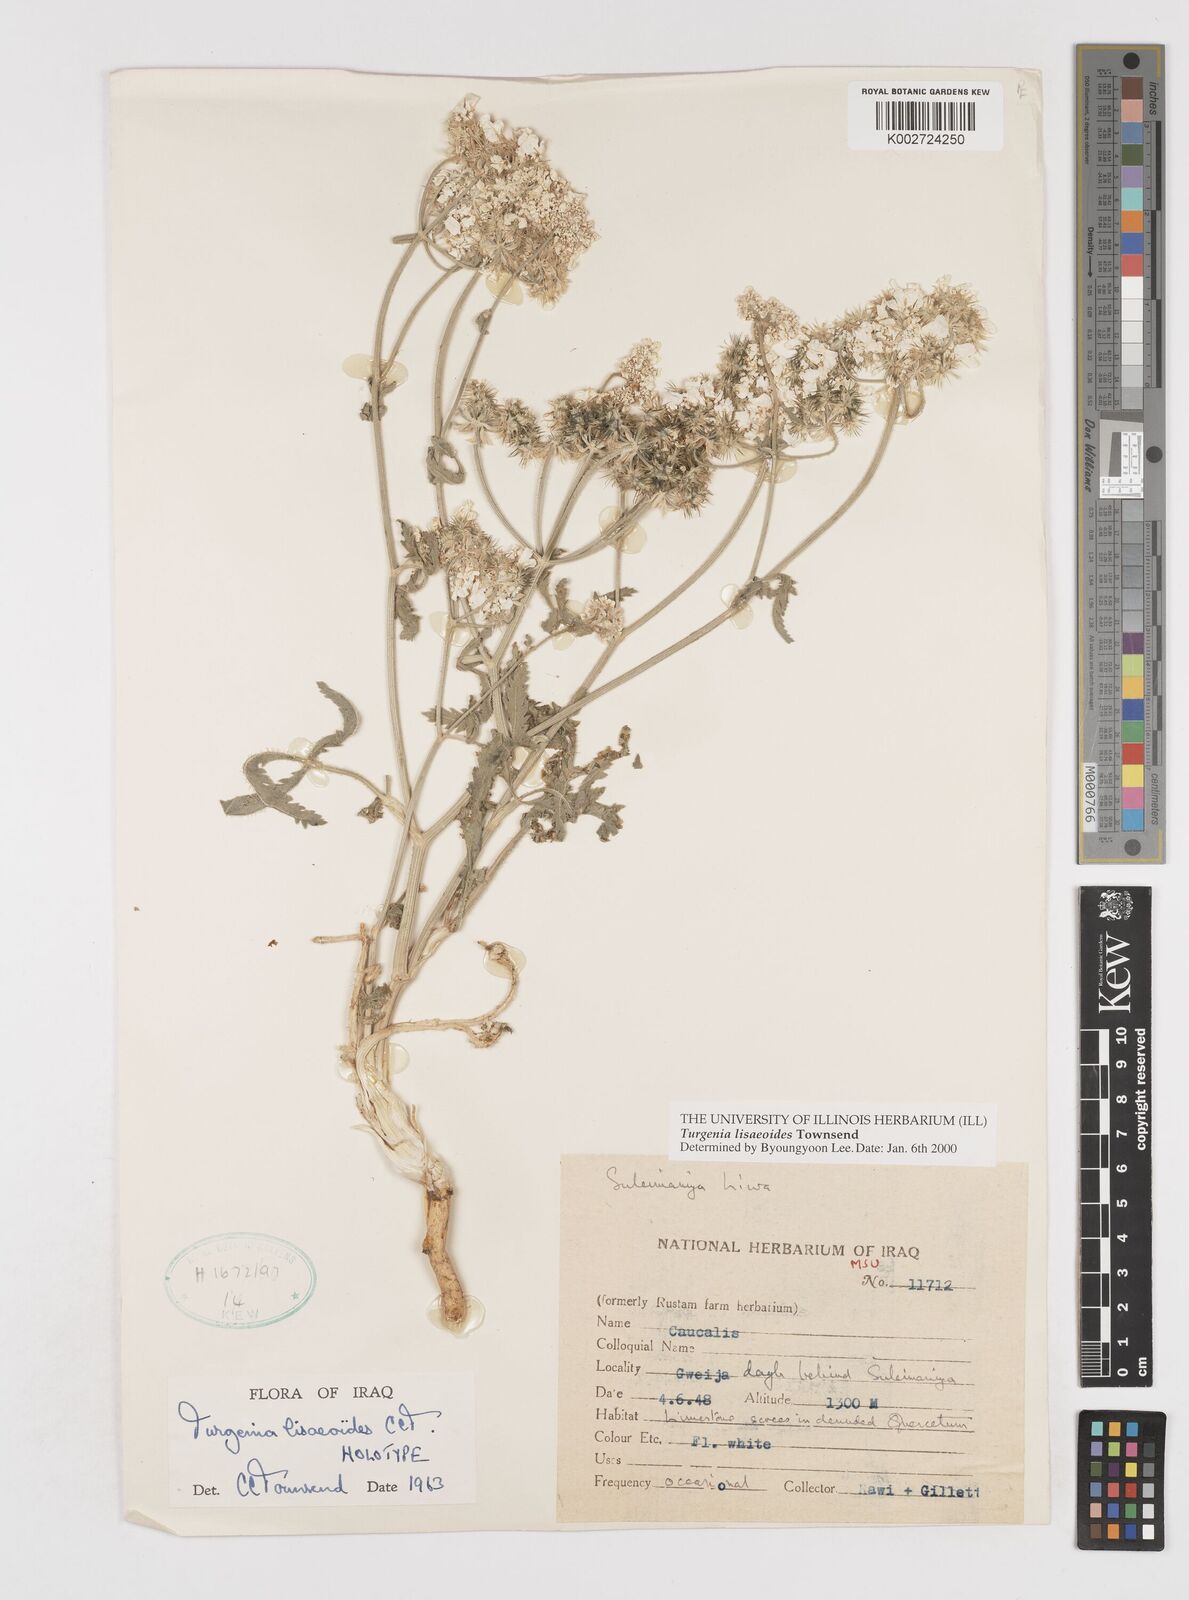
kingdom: Plantae
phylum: Tracheophyta
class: Magnoliopsida
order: Apiales
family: Apiaceae
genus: Turgenia
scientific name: Turgenia lisaeoides
